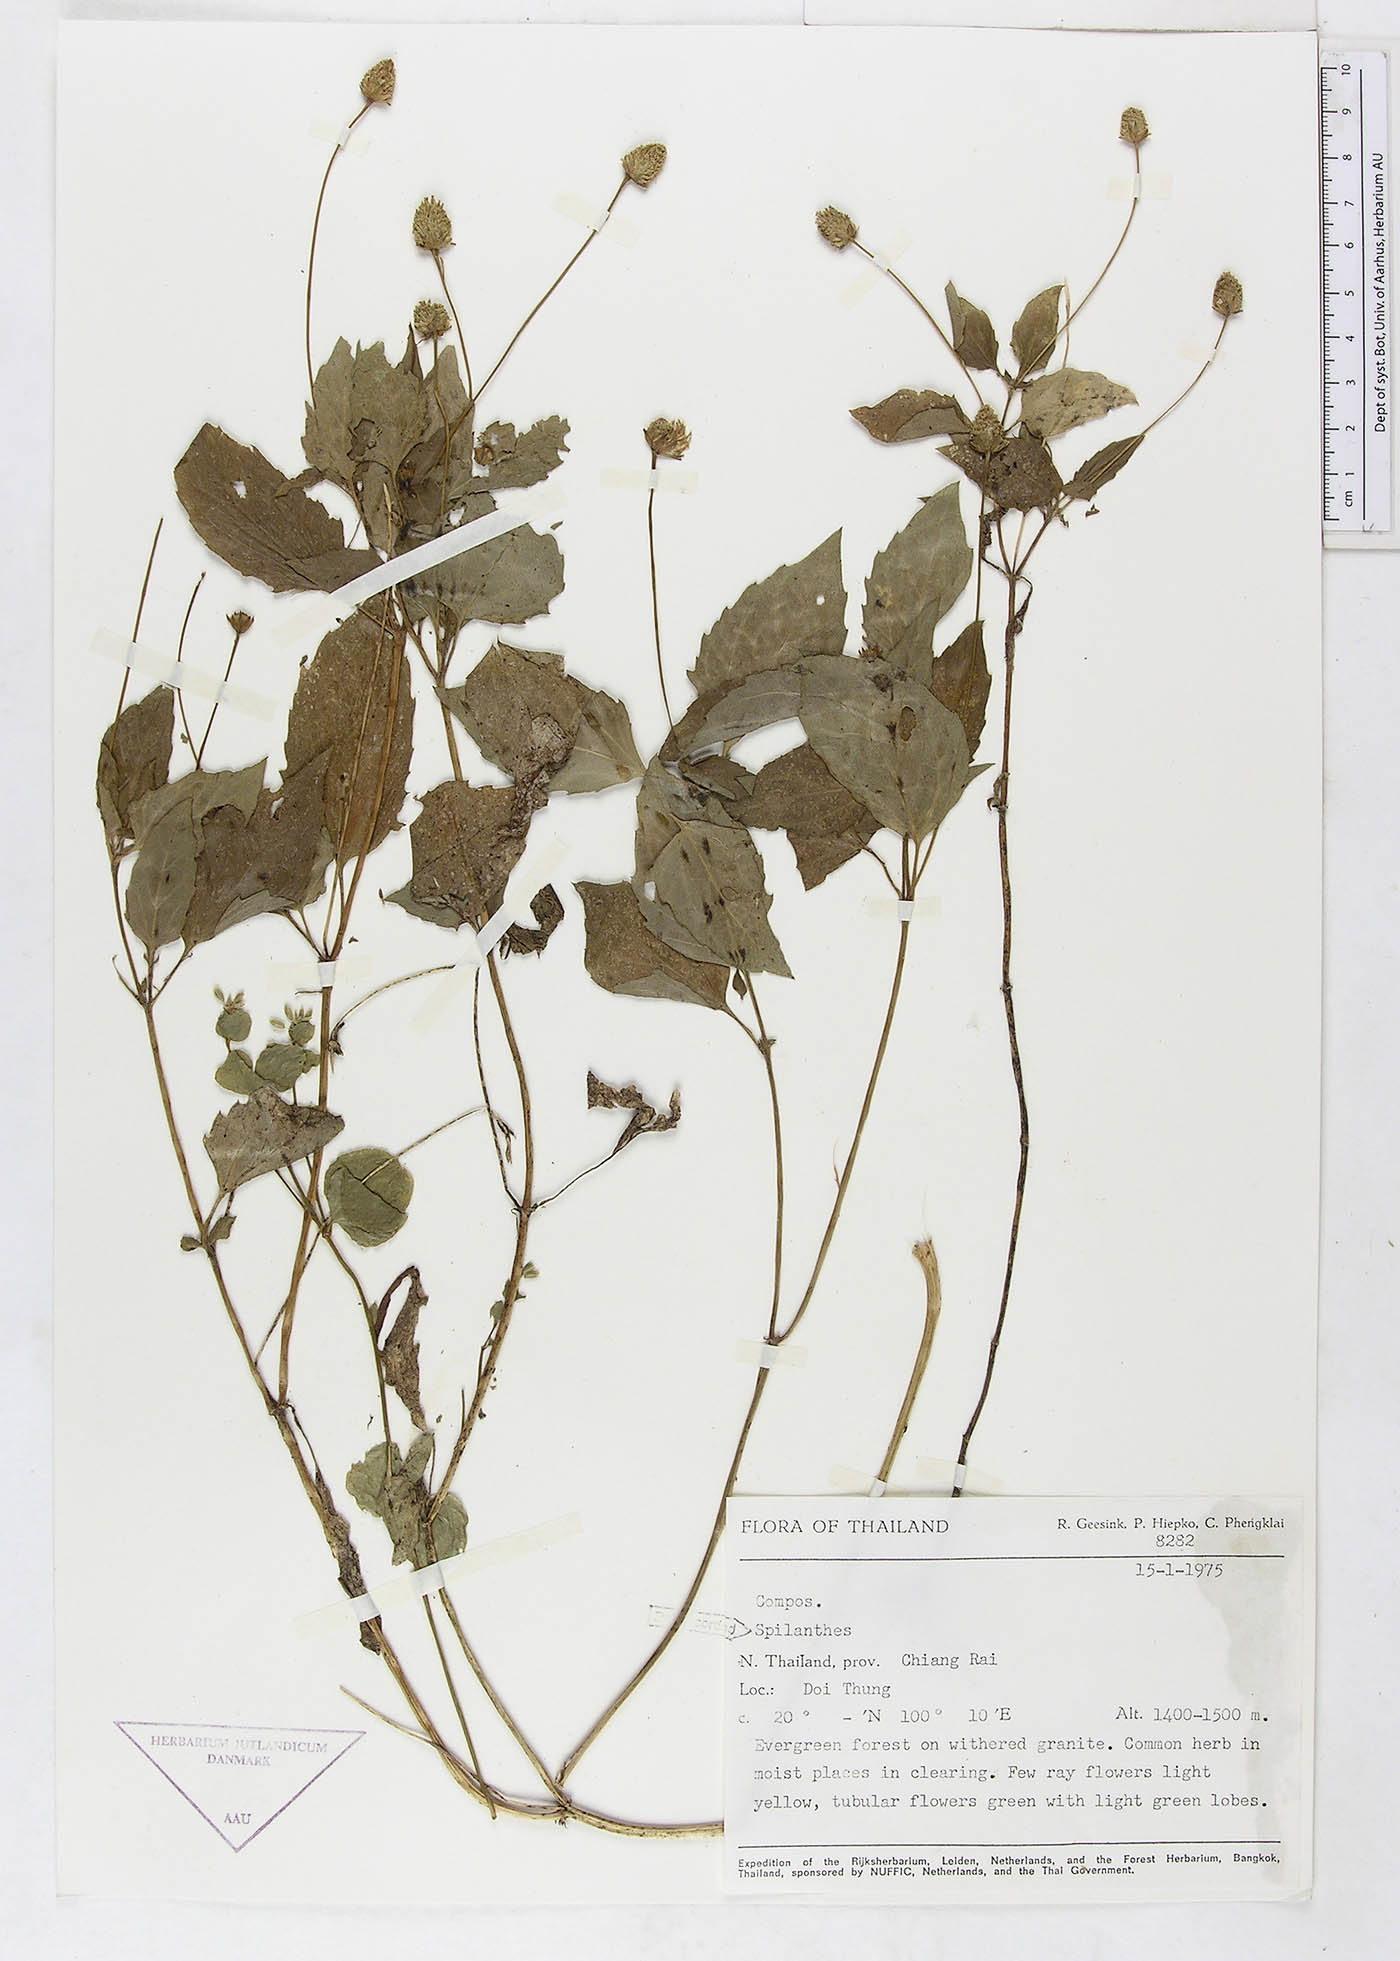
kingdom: Plantae
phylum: Tracheophyta
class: Magnoliopsida
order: Asterales
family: Asteraceae
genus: Spilanthes
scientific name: Spilanthes
